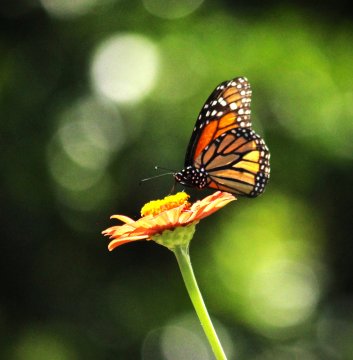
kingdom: Animalia
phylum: Arthropoda
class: Insecta
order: Lepidoptera
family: Nymphalidae
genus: Danaus
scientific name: Danaus plexippus
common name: Monarch
